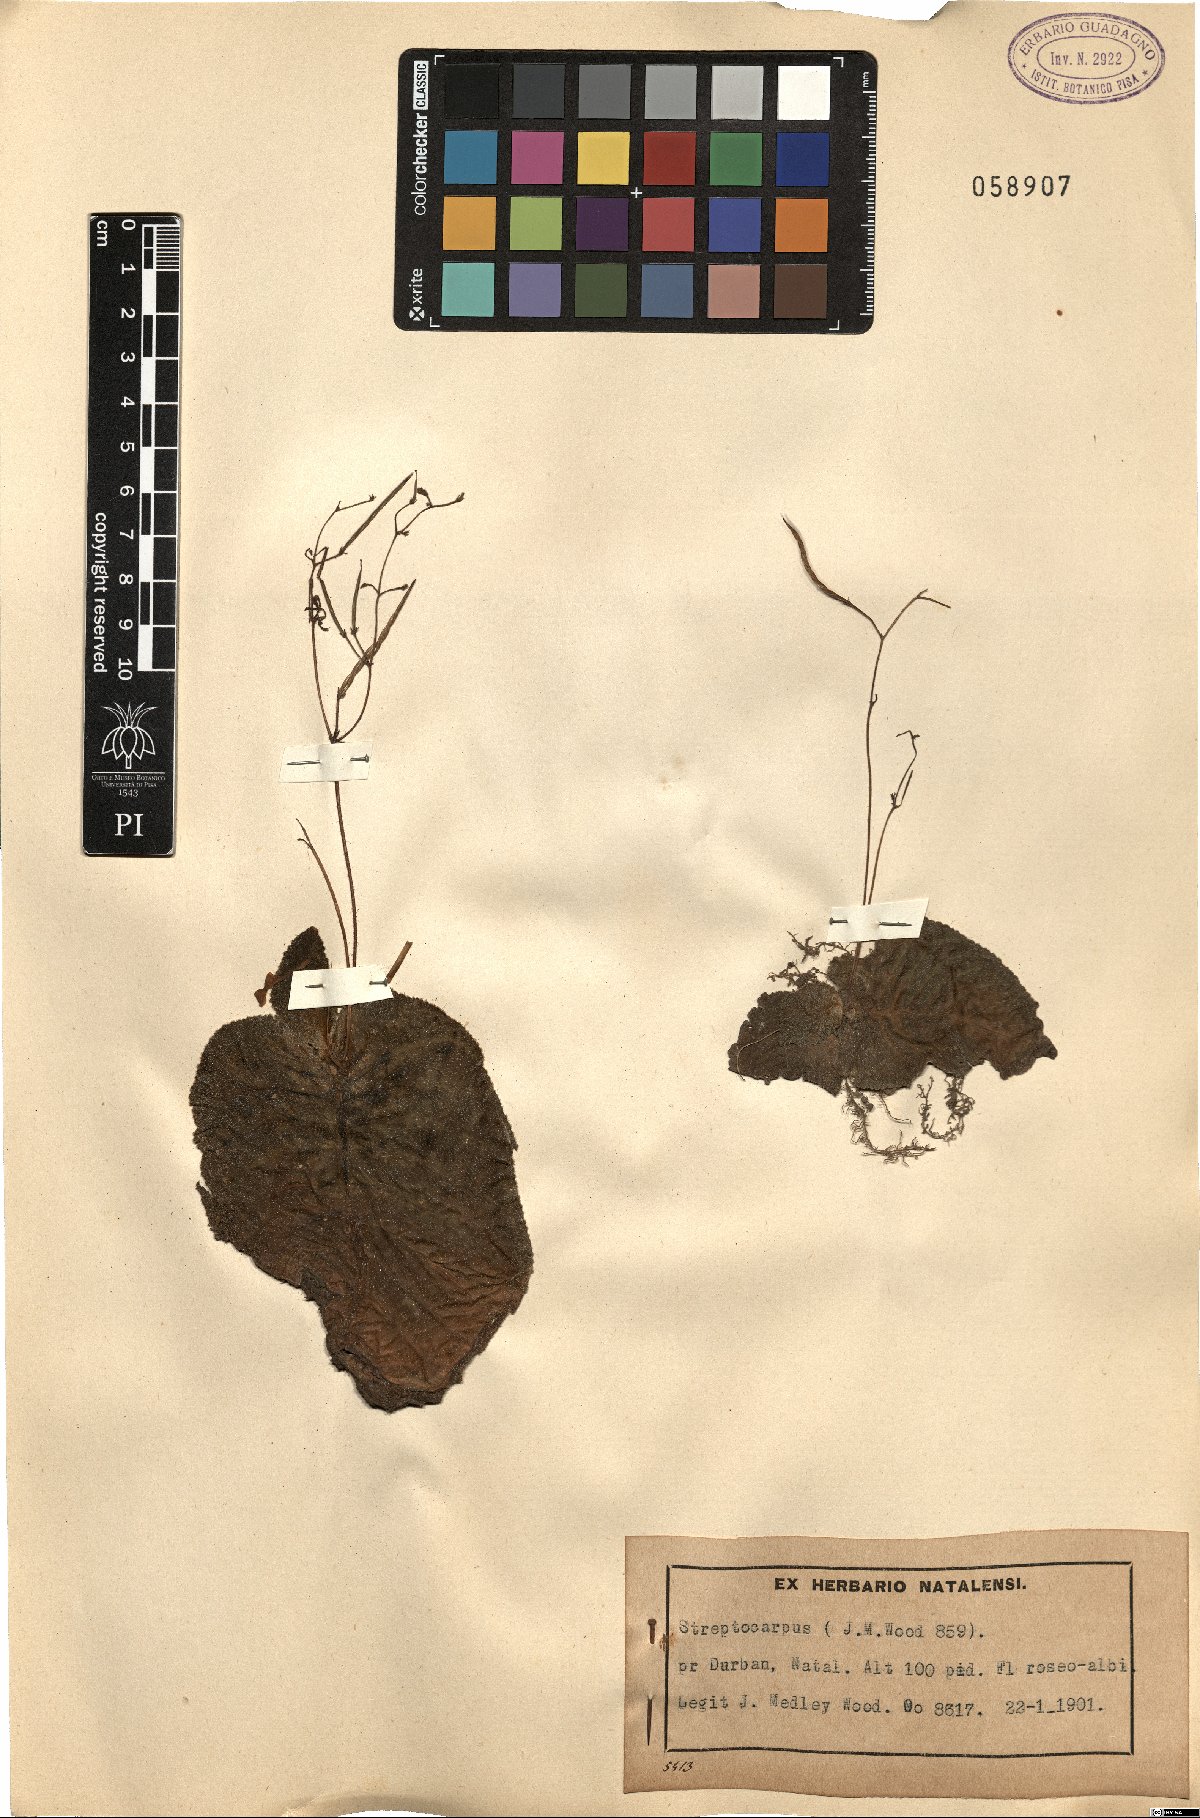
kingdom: Plantae
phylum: Tracheophyta
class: Magnoliopsida
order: Lamiales
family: Gesneriaceae
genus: Streptocarpus
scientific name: Streptocarpus
